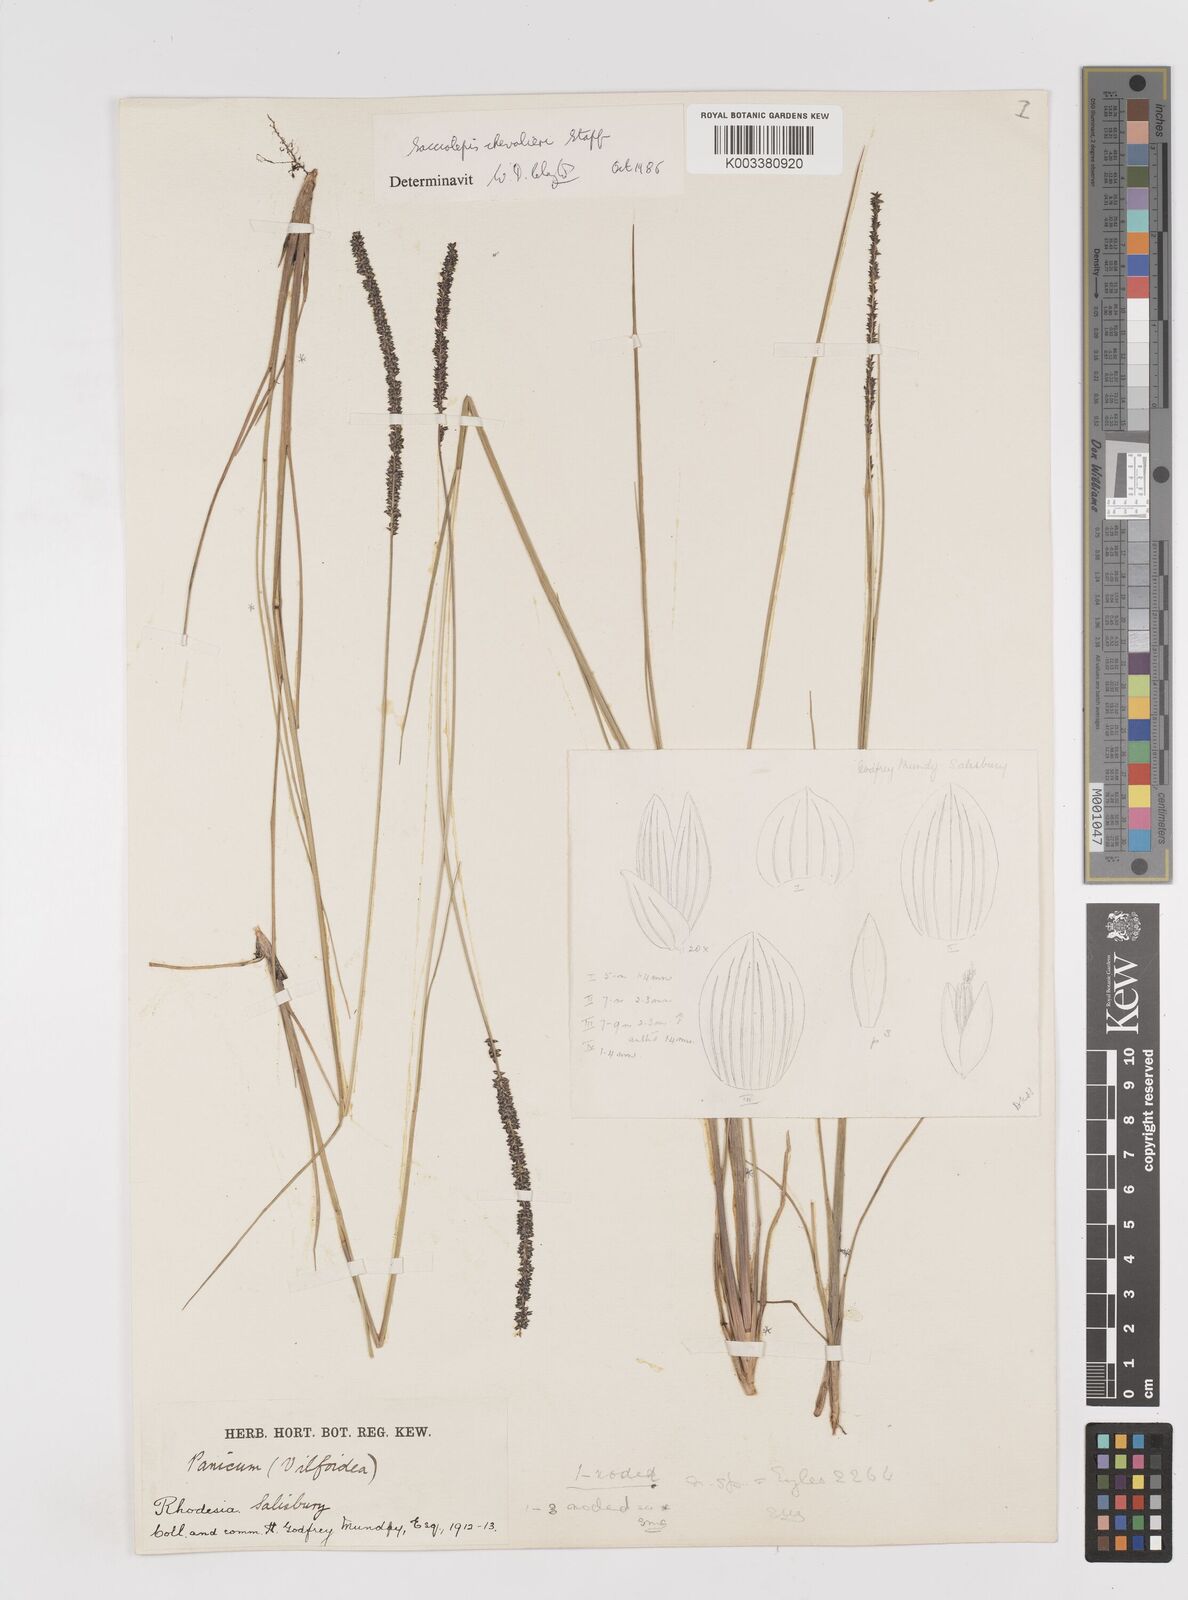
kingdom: Plantae
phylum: Tracheophyta
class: Liliopsida
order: Poales
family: Poaceae
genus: Sacciolepis
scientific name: Sacciolepis chevalieri
